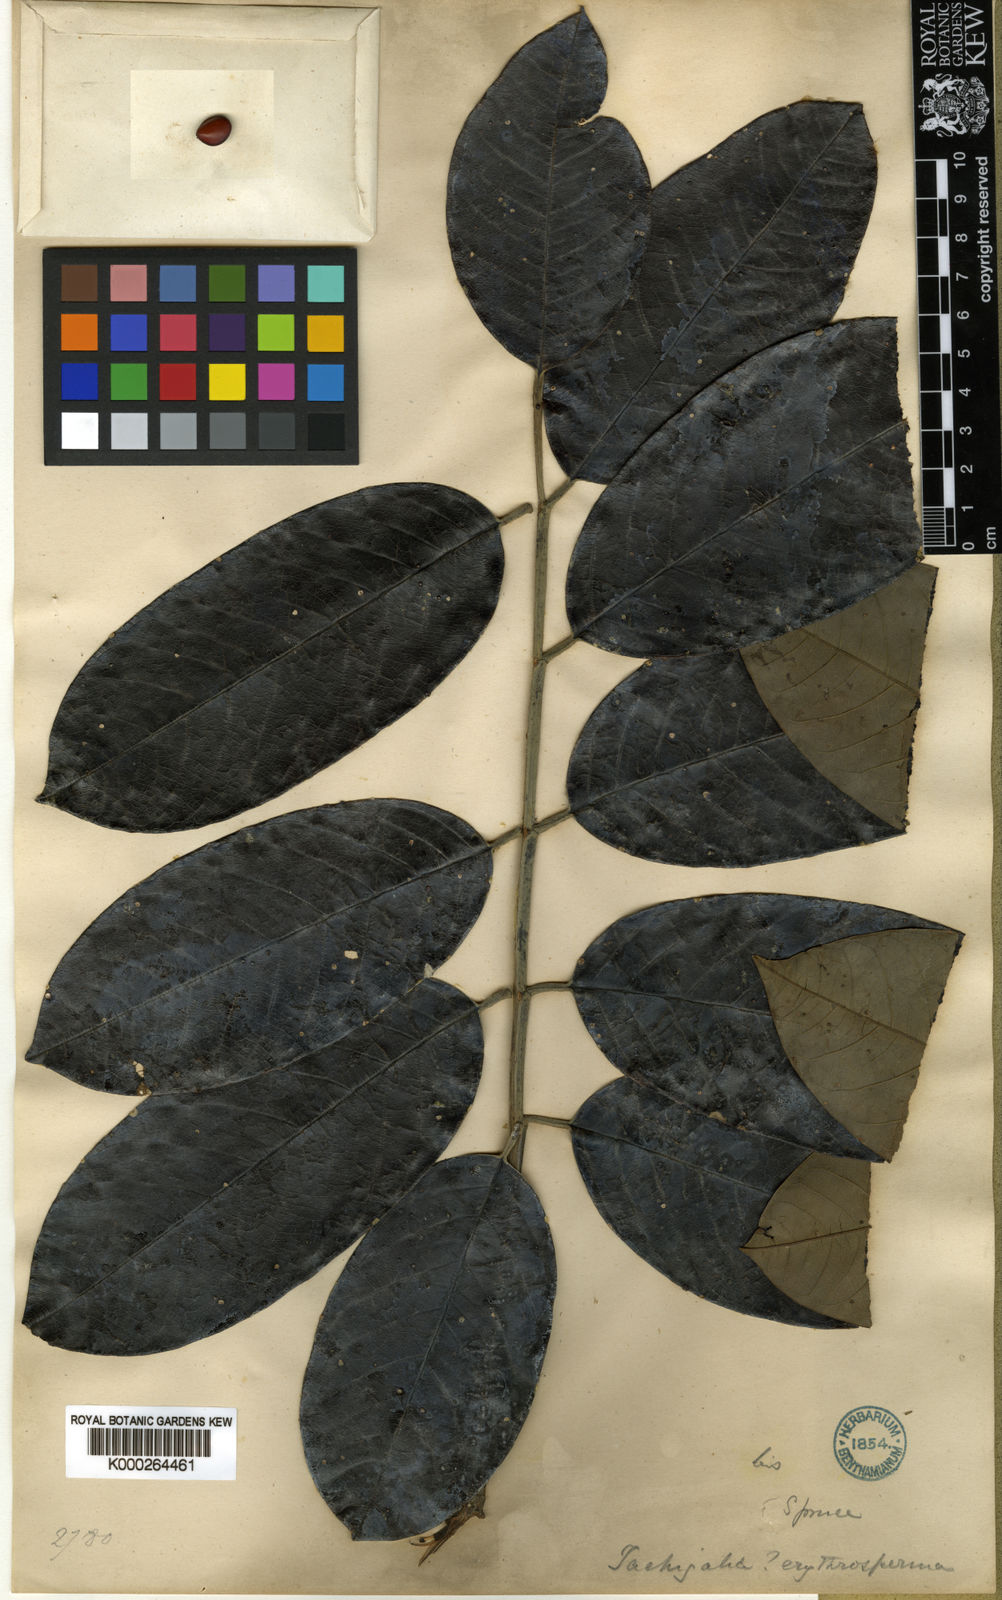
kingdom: Plantae
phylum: Tracheophyta
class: Magnoliopsida
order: Fabales
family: Fabaceae
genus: Batesia
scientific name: Batesia floribunda
